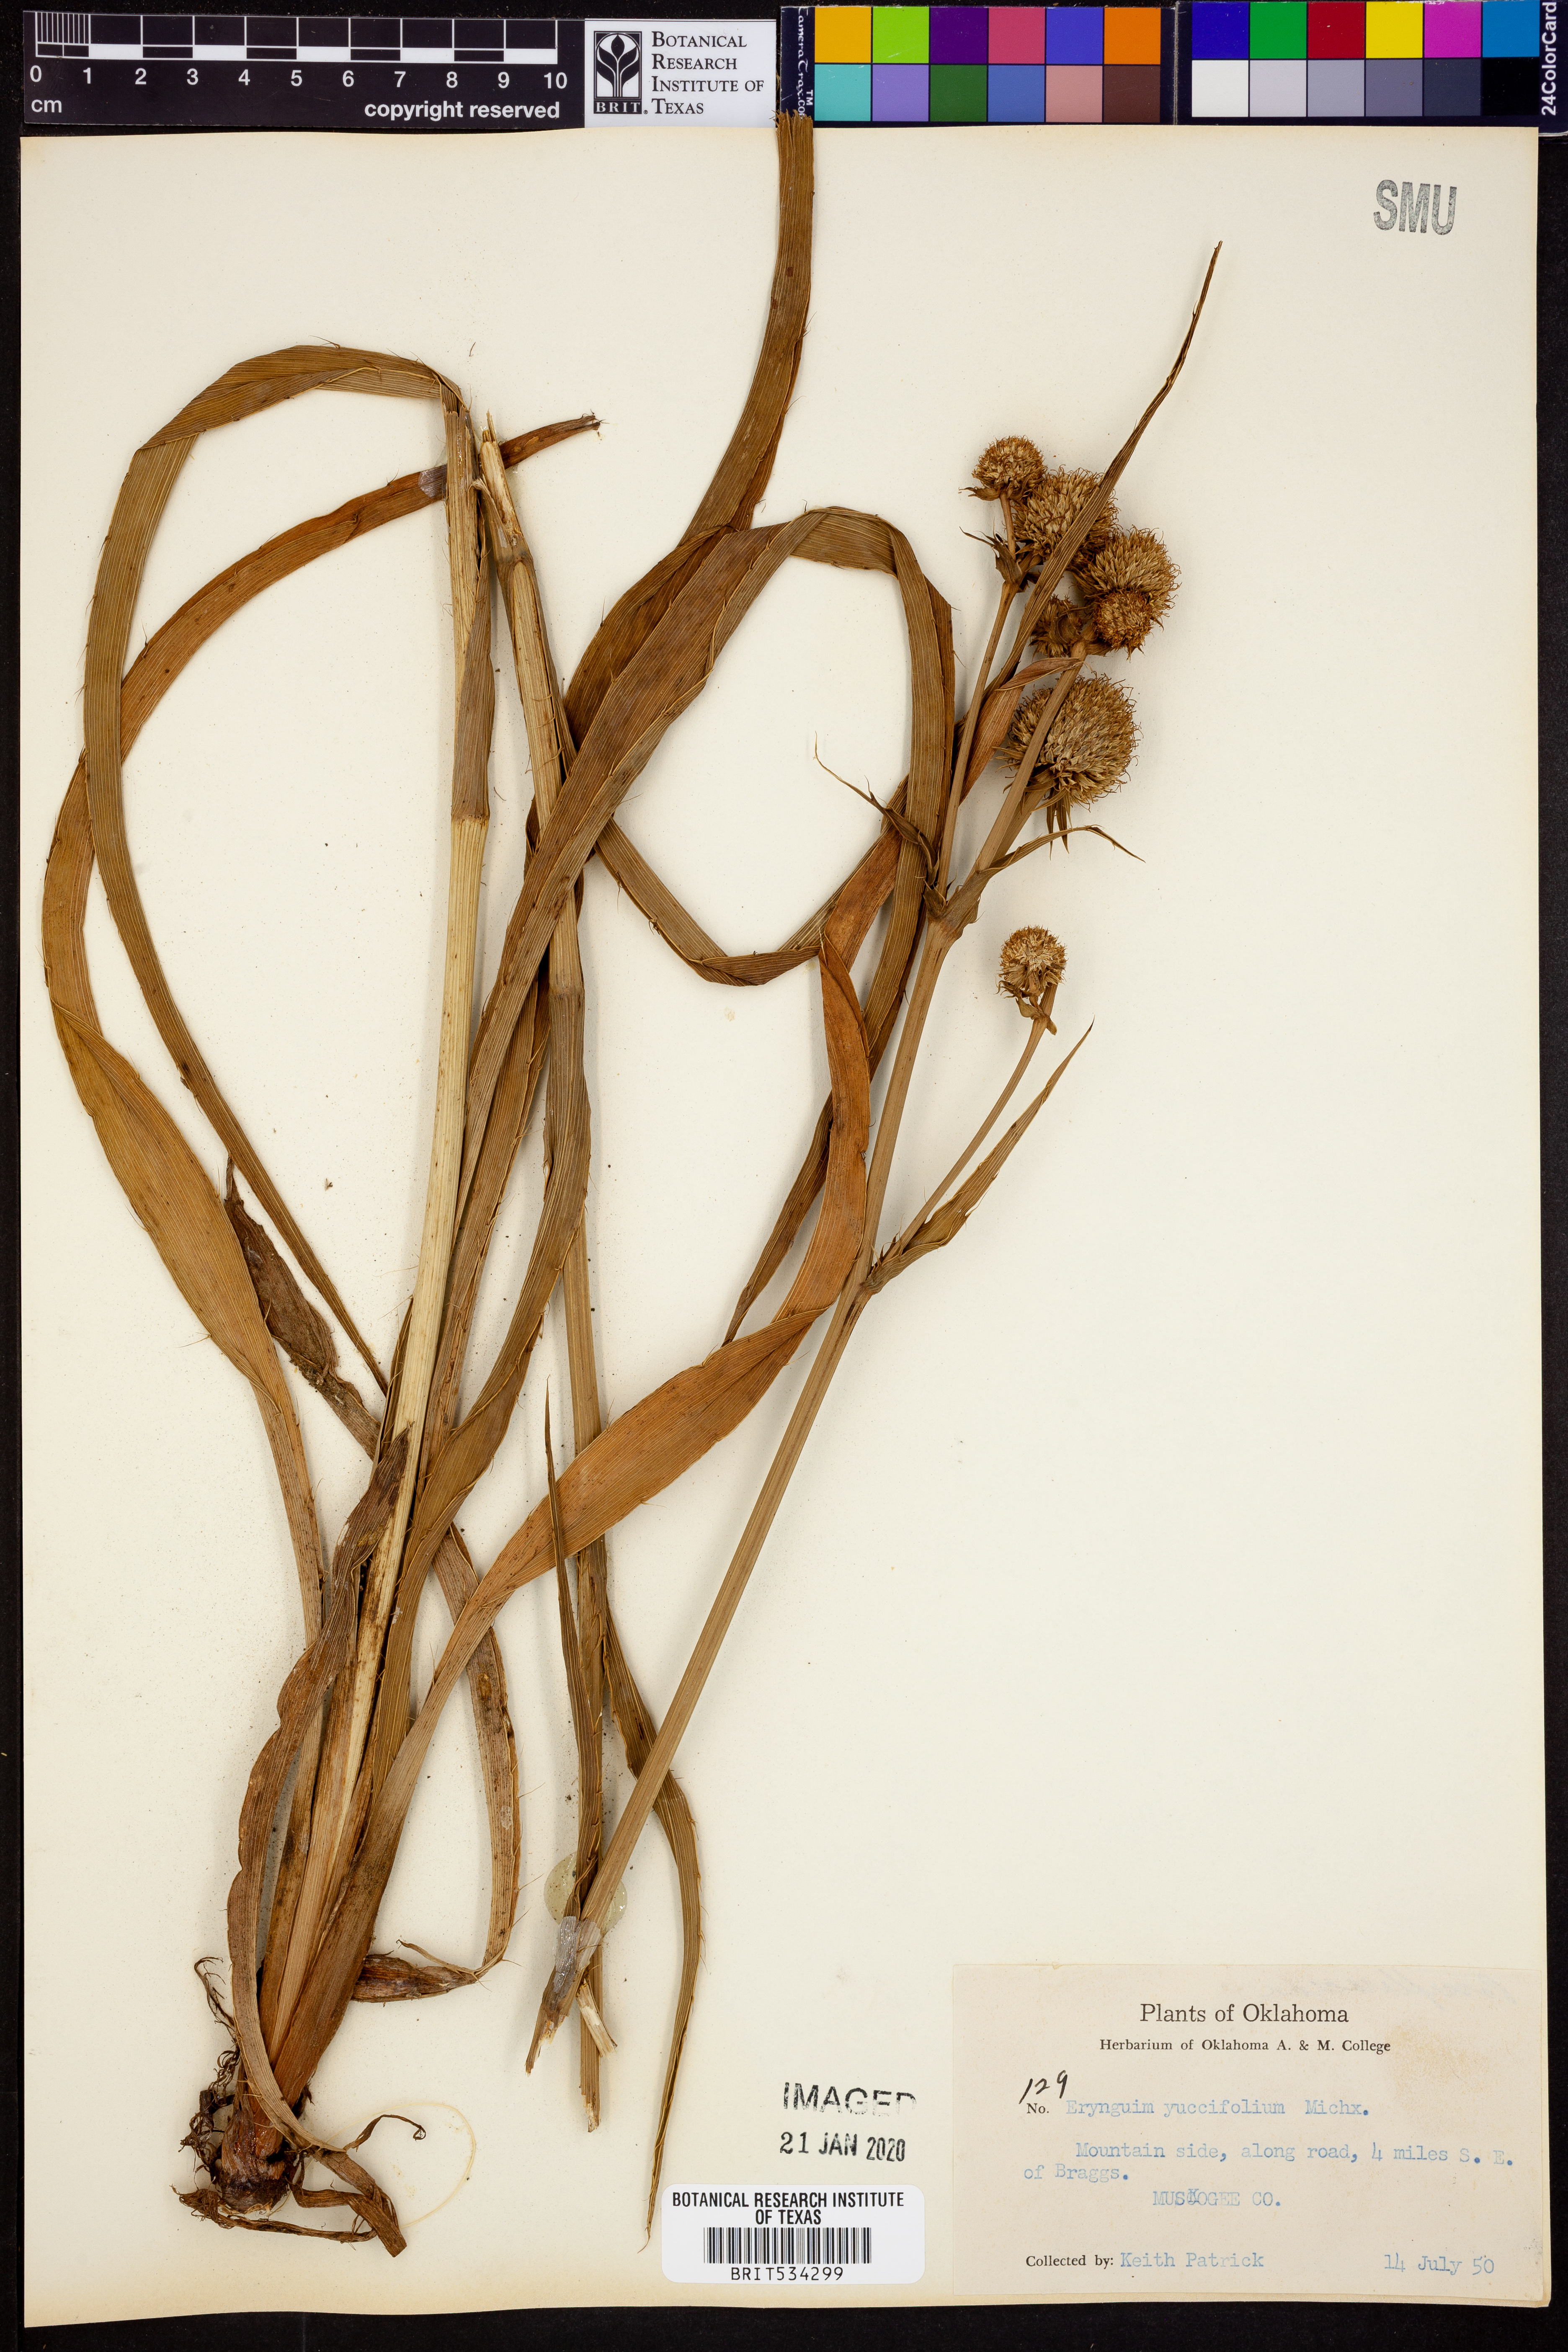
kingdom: Plantae
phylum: Tracheophyta
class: Magnoliopsida
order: Apiales
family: Apiaceae
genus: Eryngium
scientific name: Eryngium yuccifolium
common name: Button eryngo
